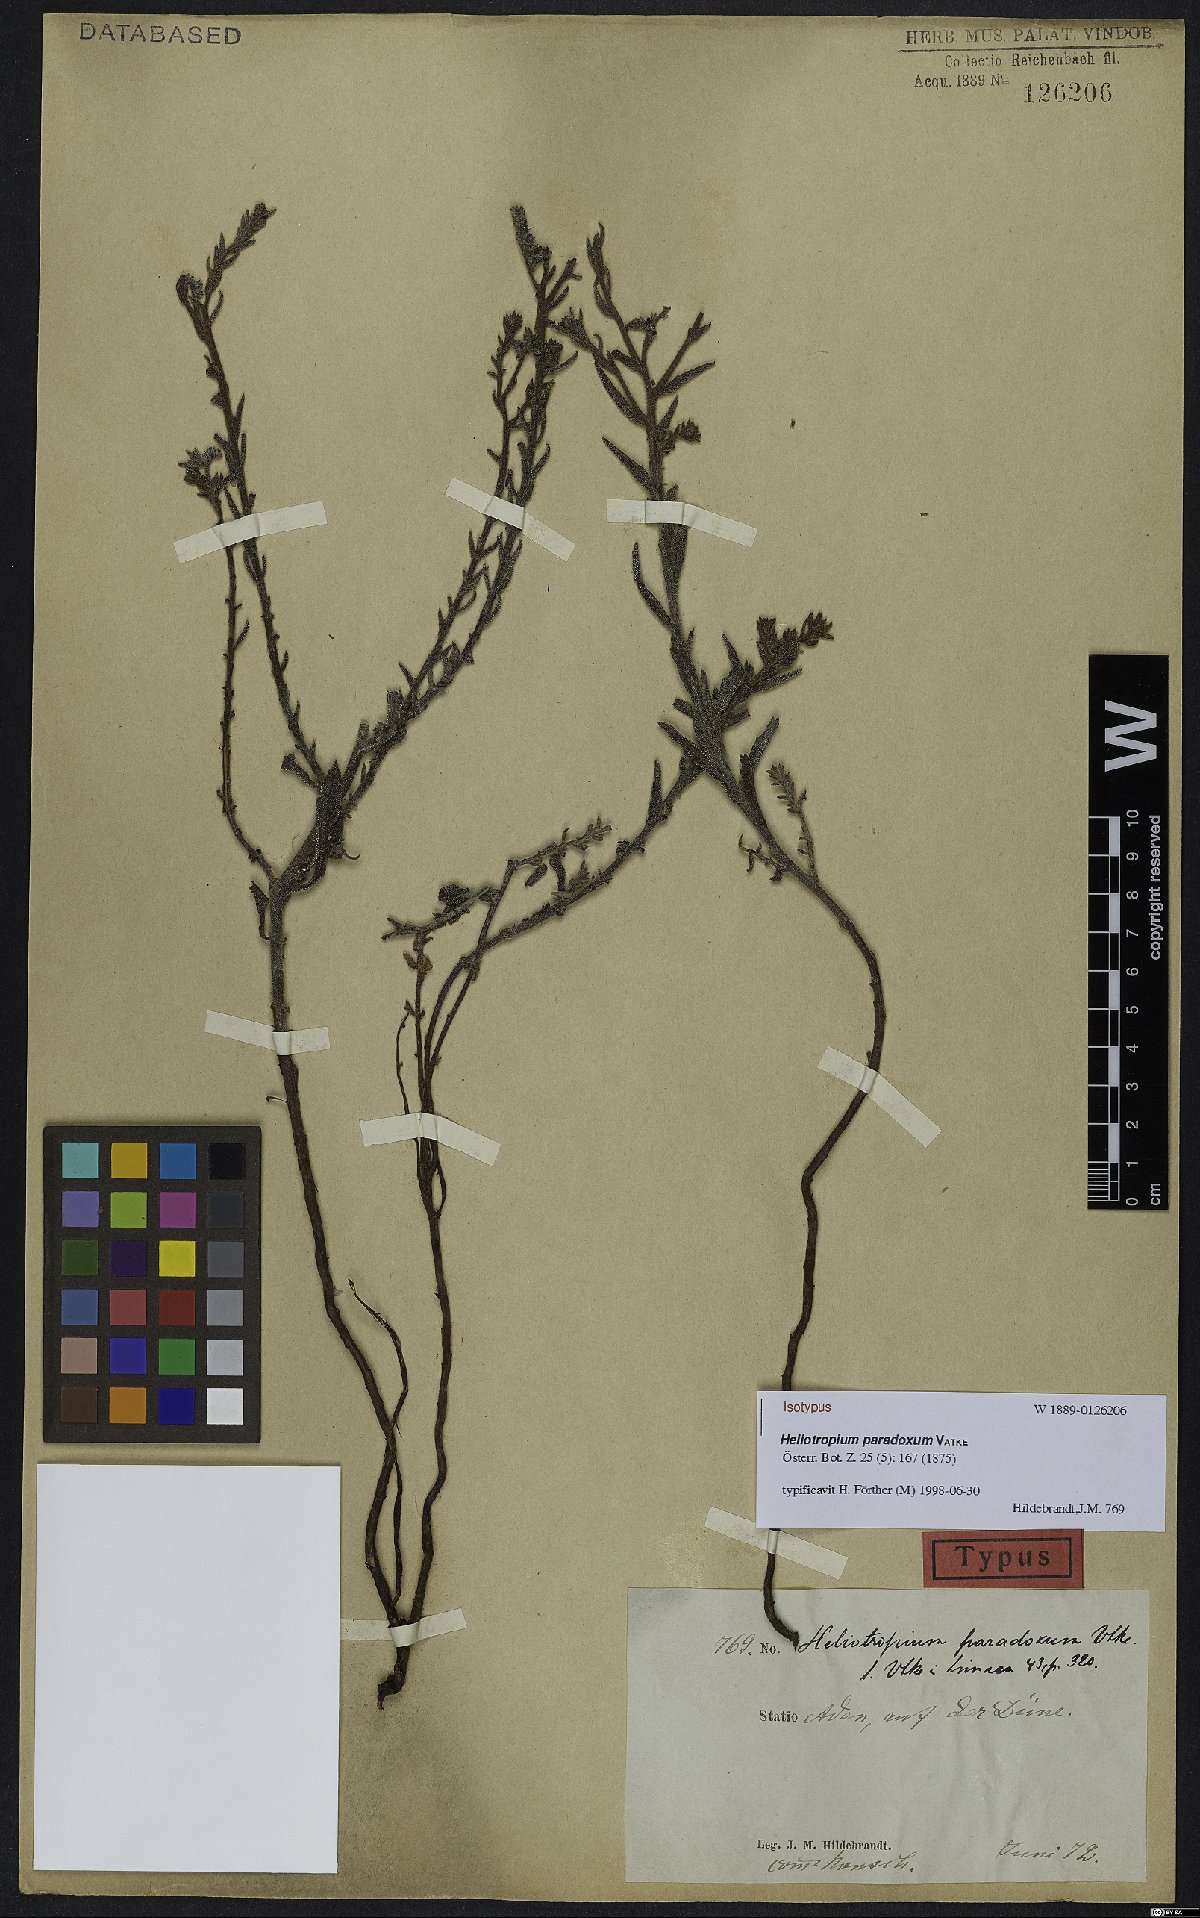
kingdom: Plantae
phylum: Tracheophyta
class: Magnoliopsida
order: Boraginales
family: Heliotropiaceae
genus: Heliotropium
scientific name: Heliotropium bacciferum
